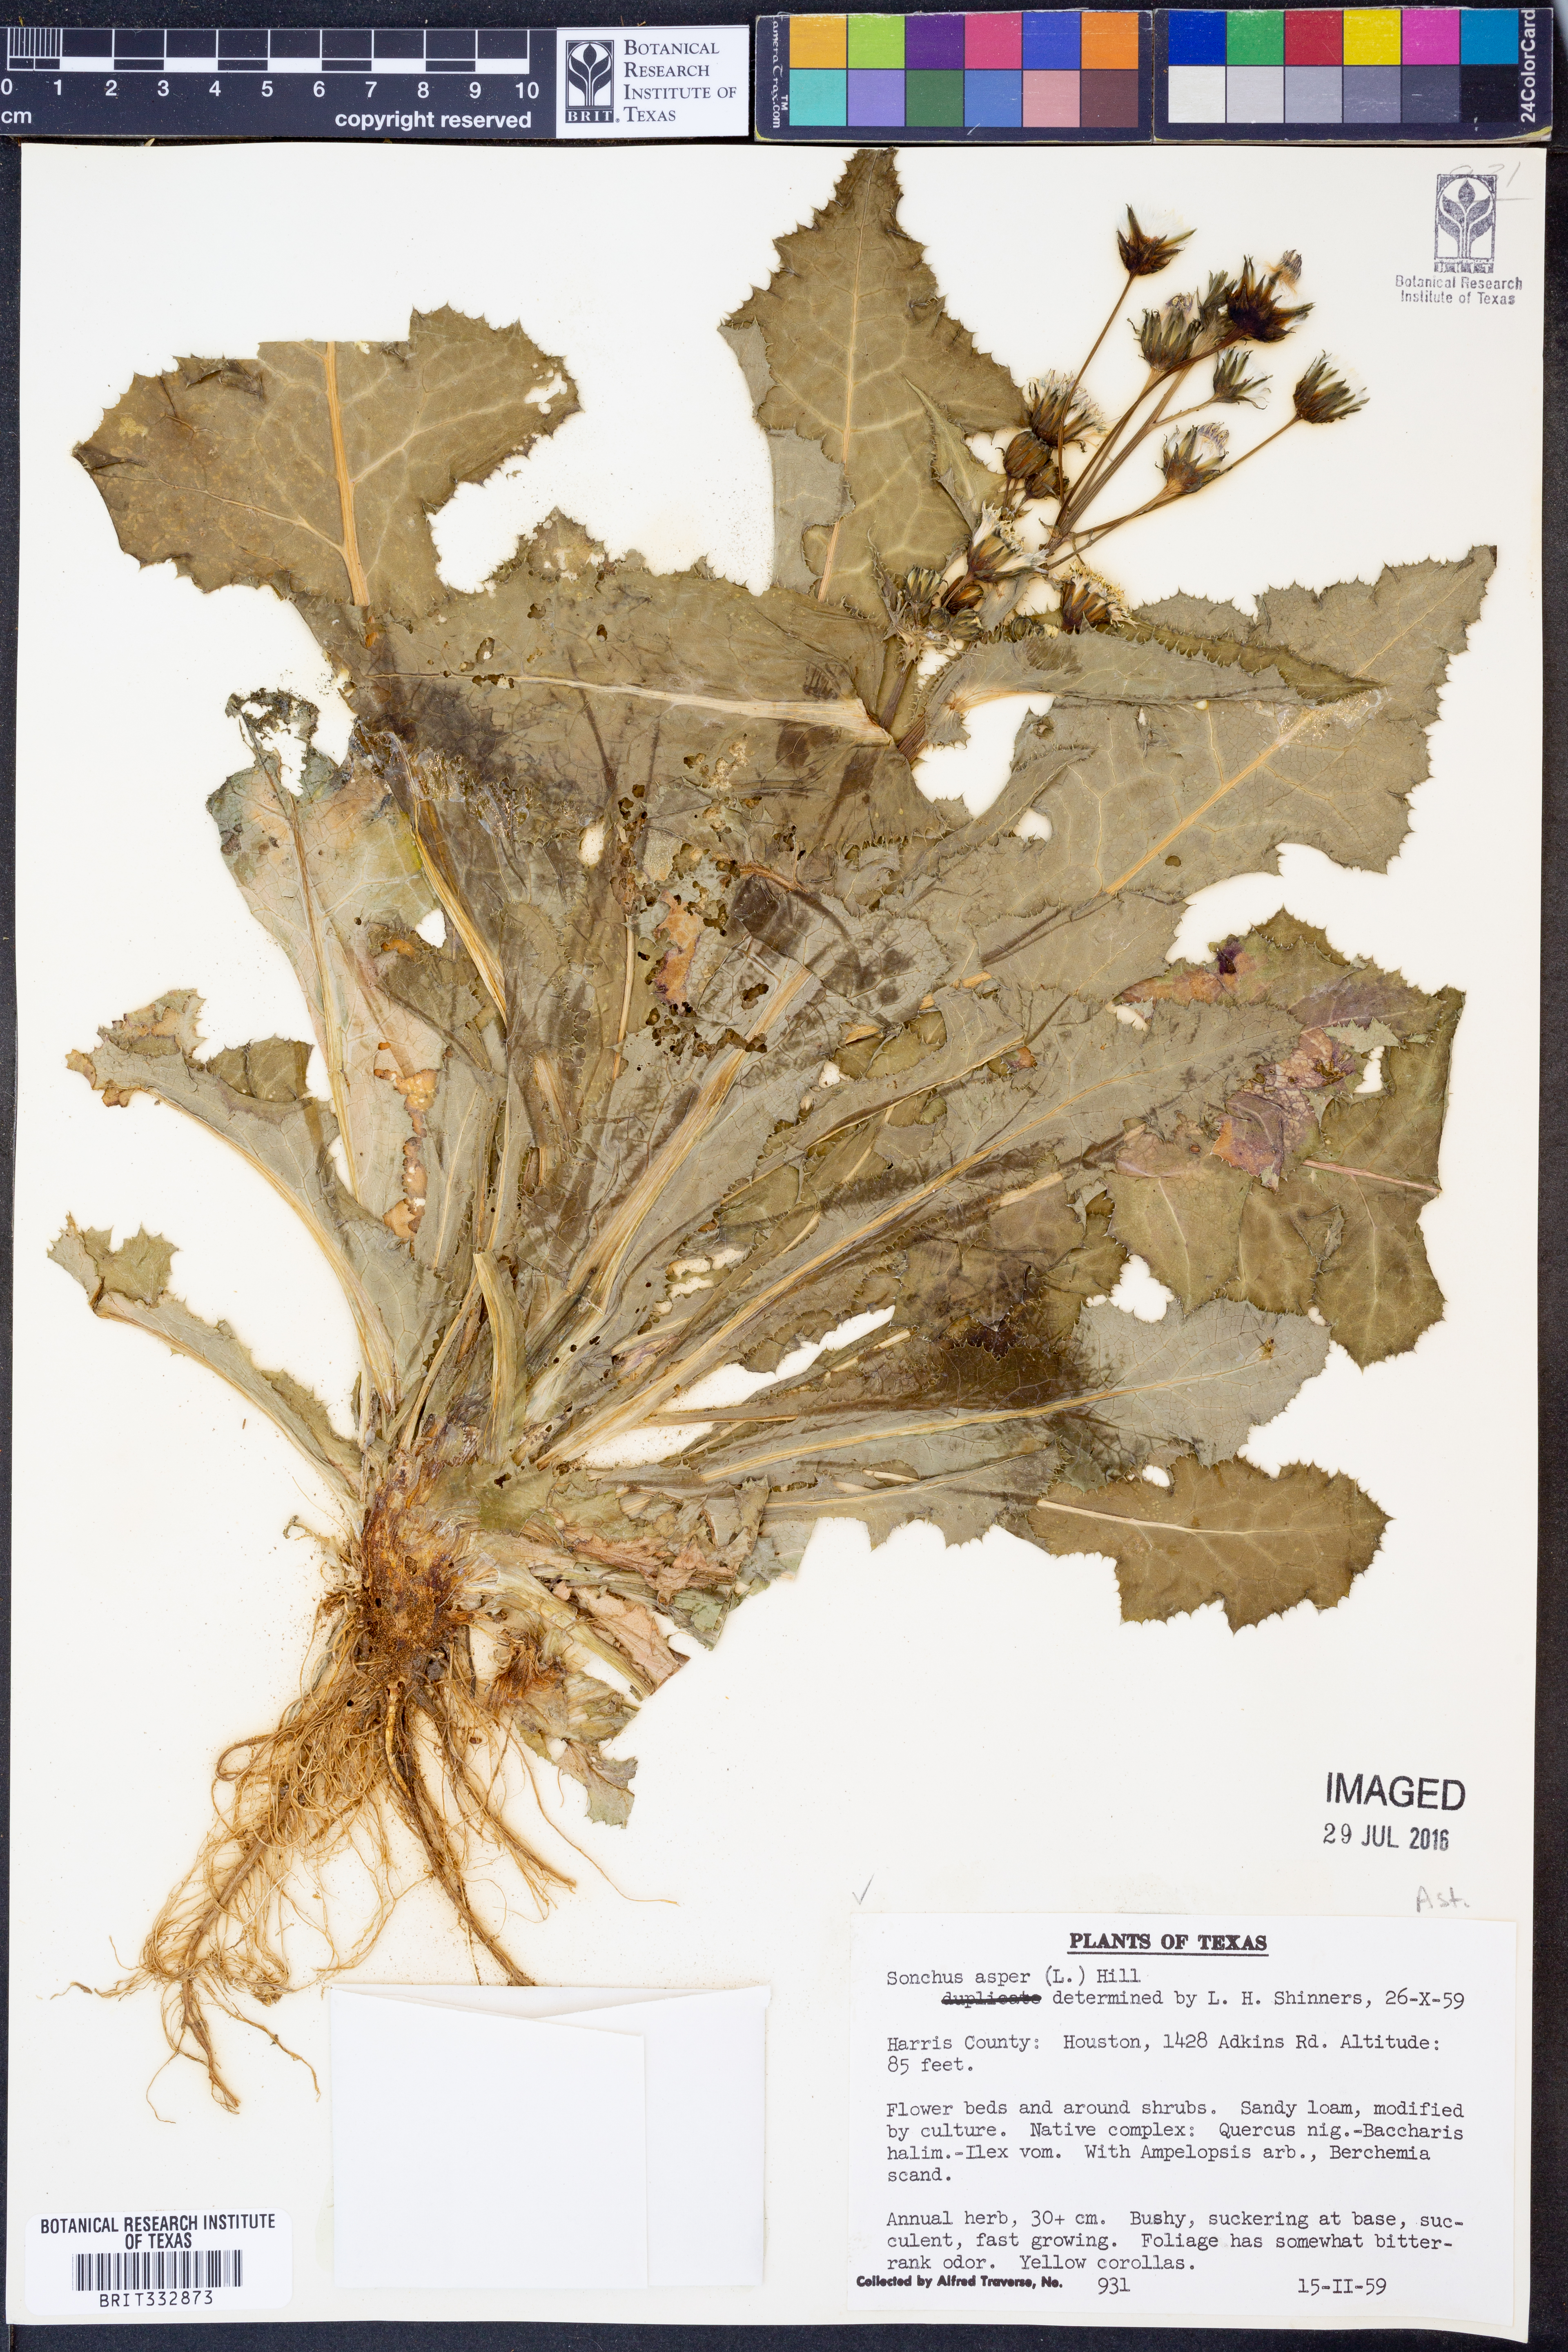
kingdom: Plantae
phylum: Tracheophyta
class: Magnoliopsida
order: Asterales
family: Asteraceae
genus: Sonchus
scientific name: Sonchus asper
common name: Prickly sow-thistle
